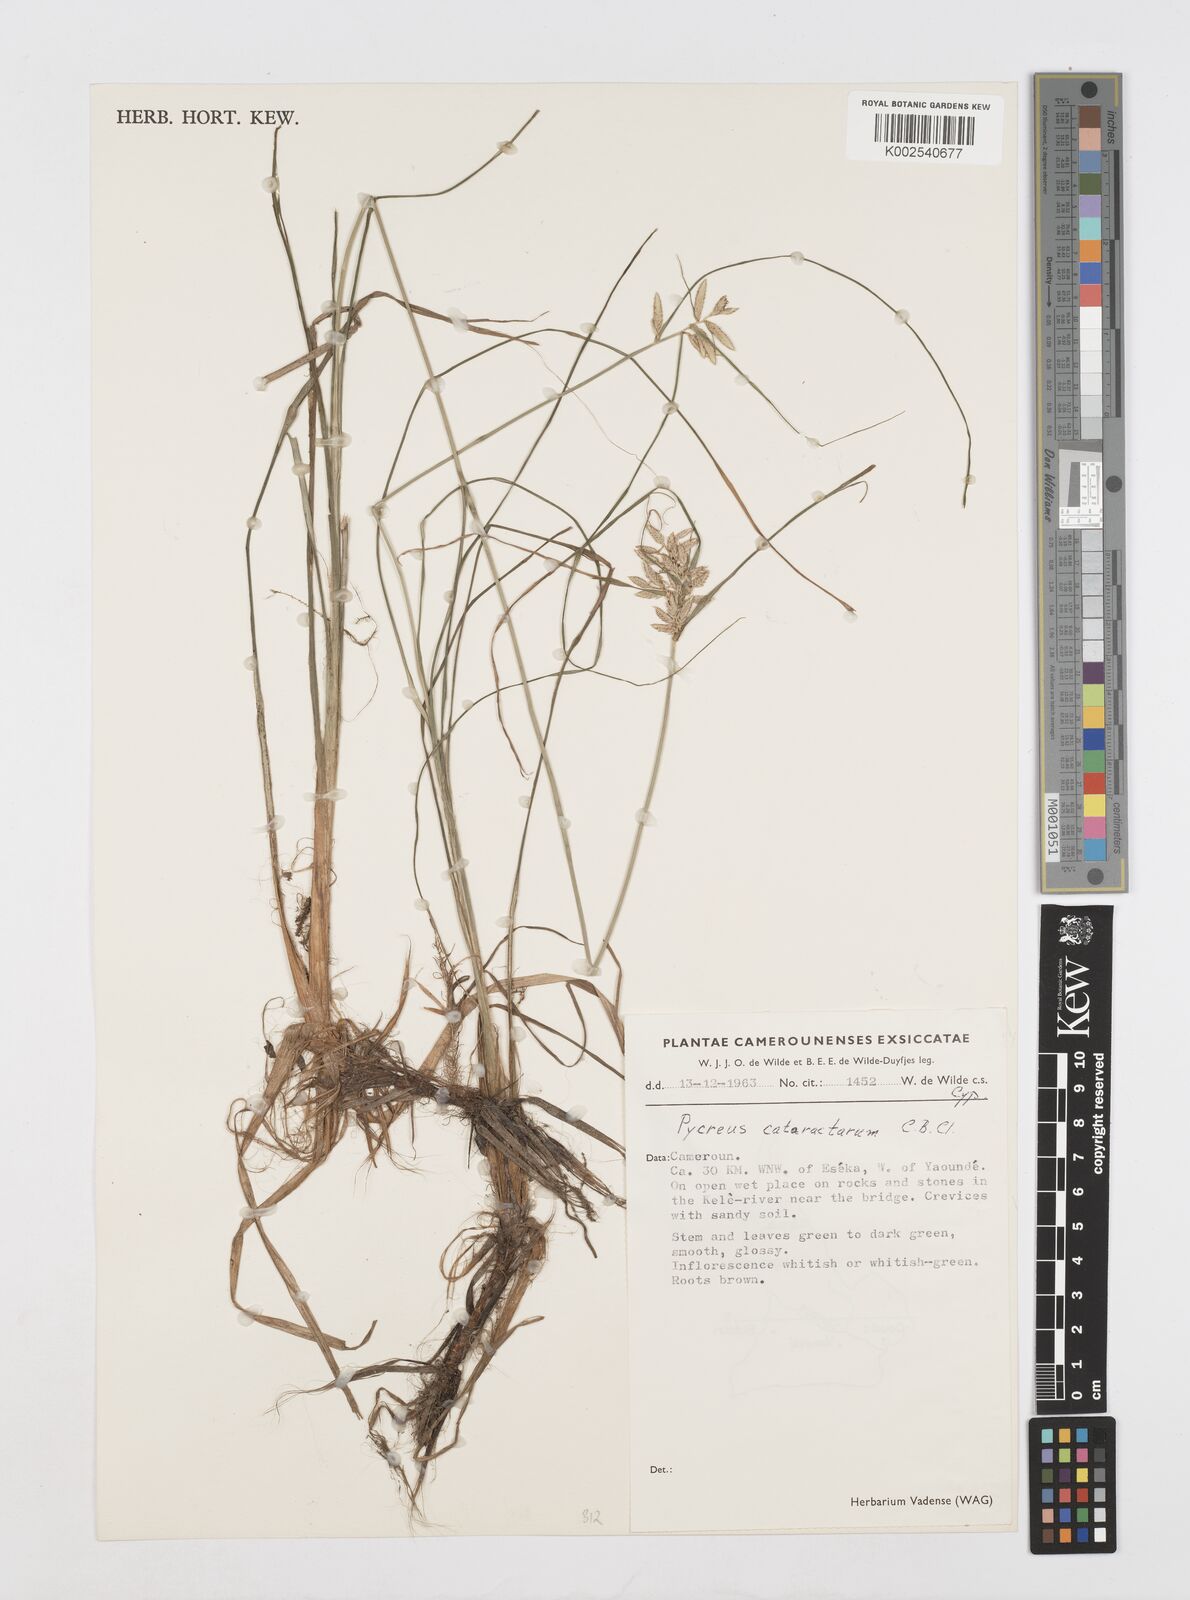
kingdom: Plantae
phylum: Tracheophyta
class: Liliopsida
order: Poales
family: Cyperaceae
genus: Cyperus
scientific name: Cyperus cataractarum
